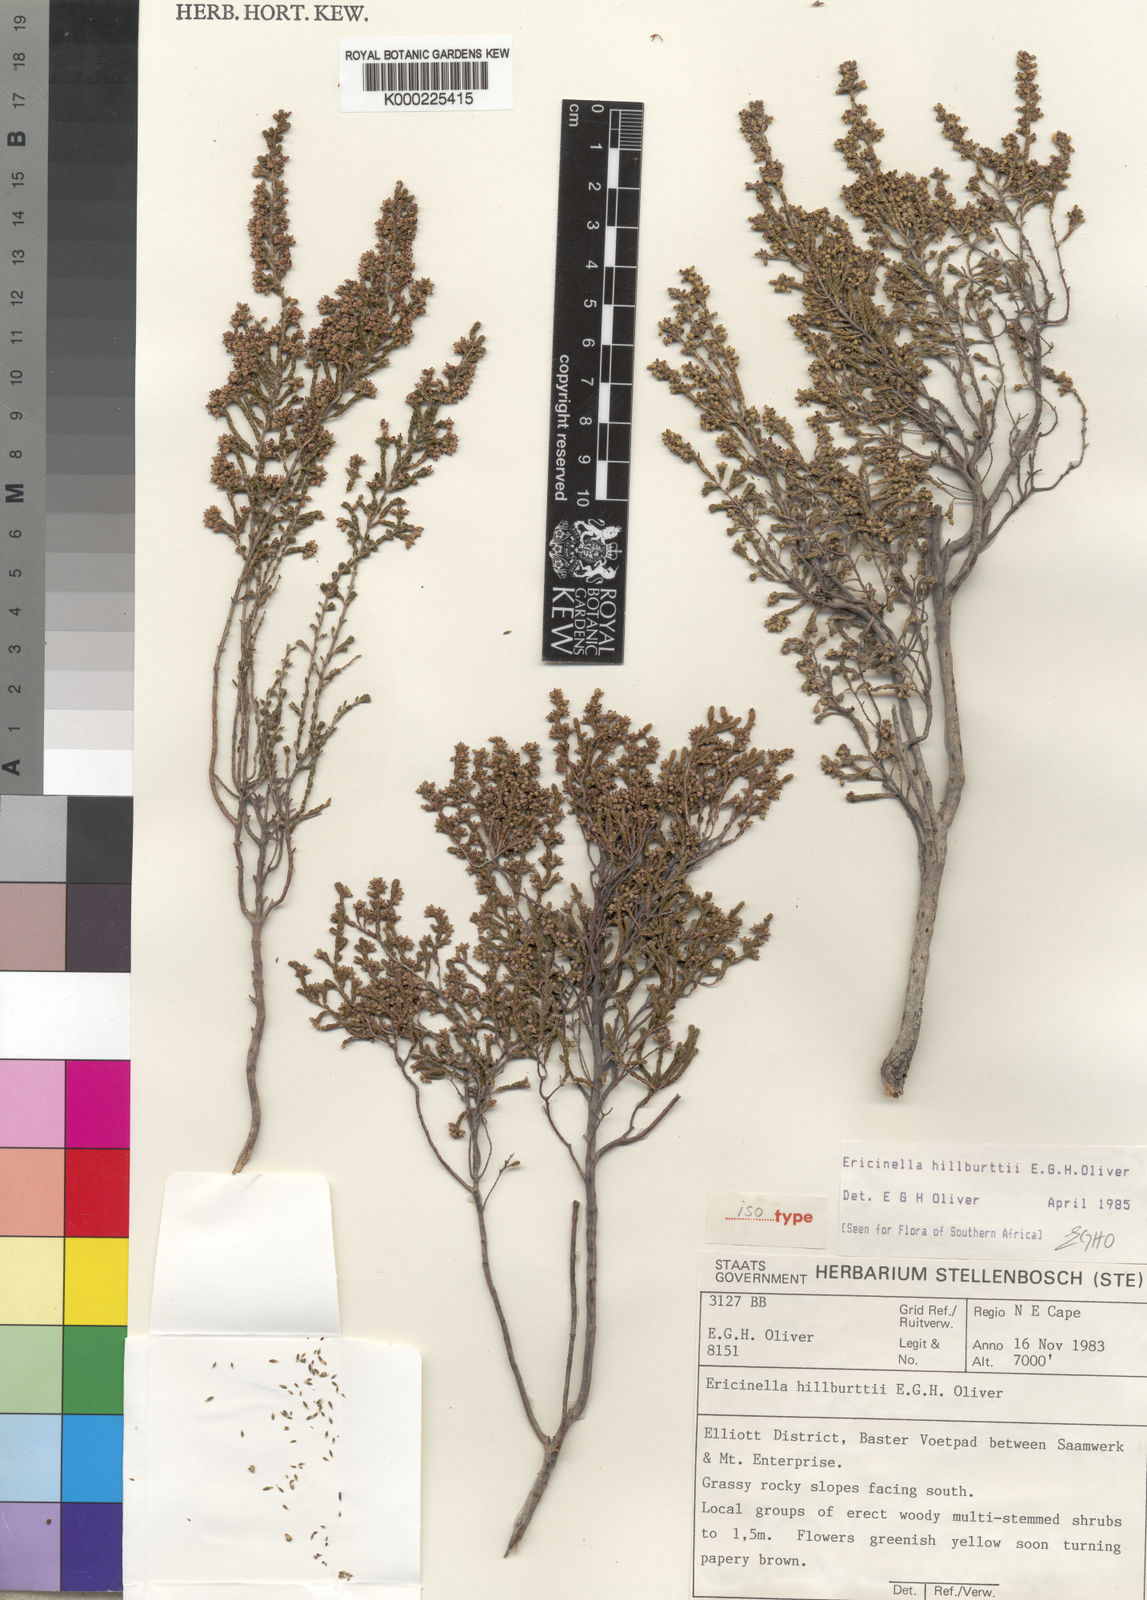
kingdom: Plantae
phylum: Tracheophyta
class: Magnoliopsida
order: Ericales
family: Ericaceae
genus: Erica
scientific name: Erica hillburttii
